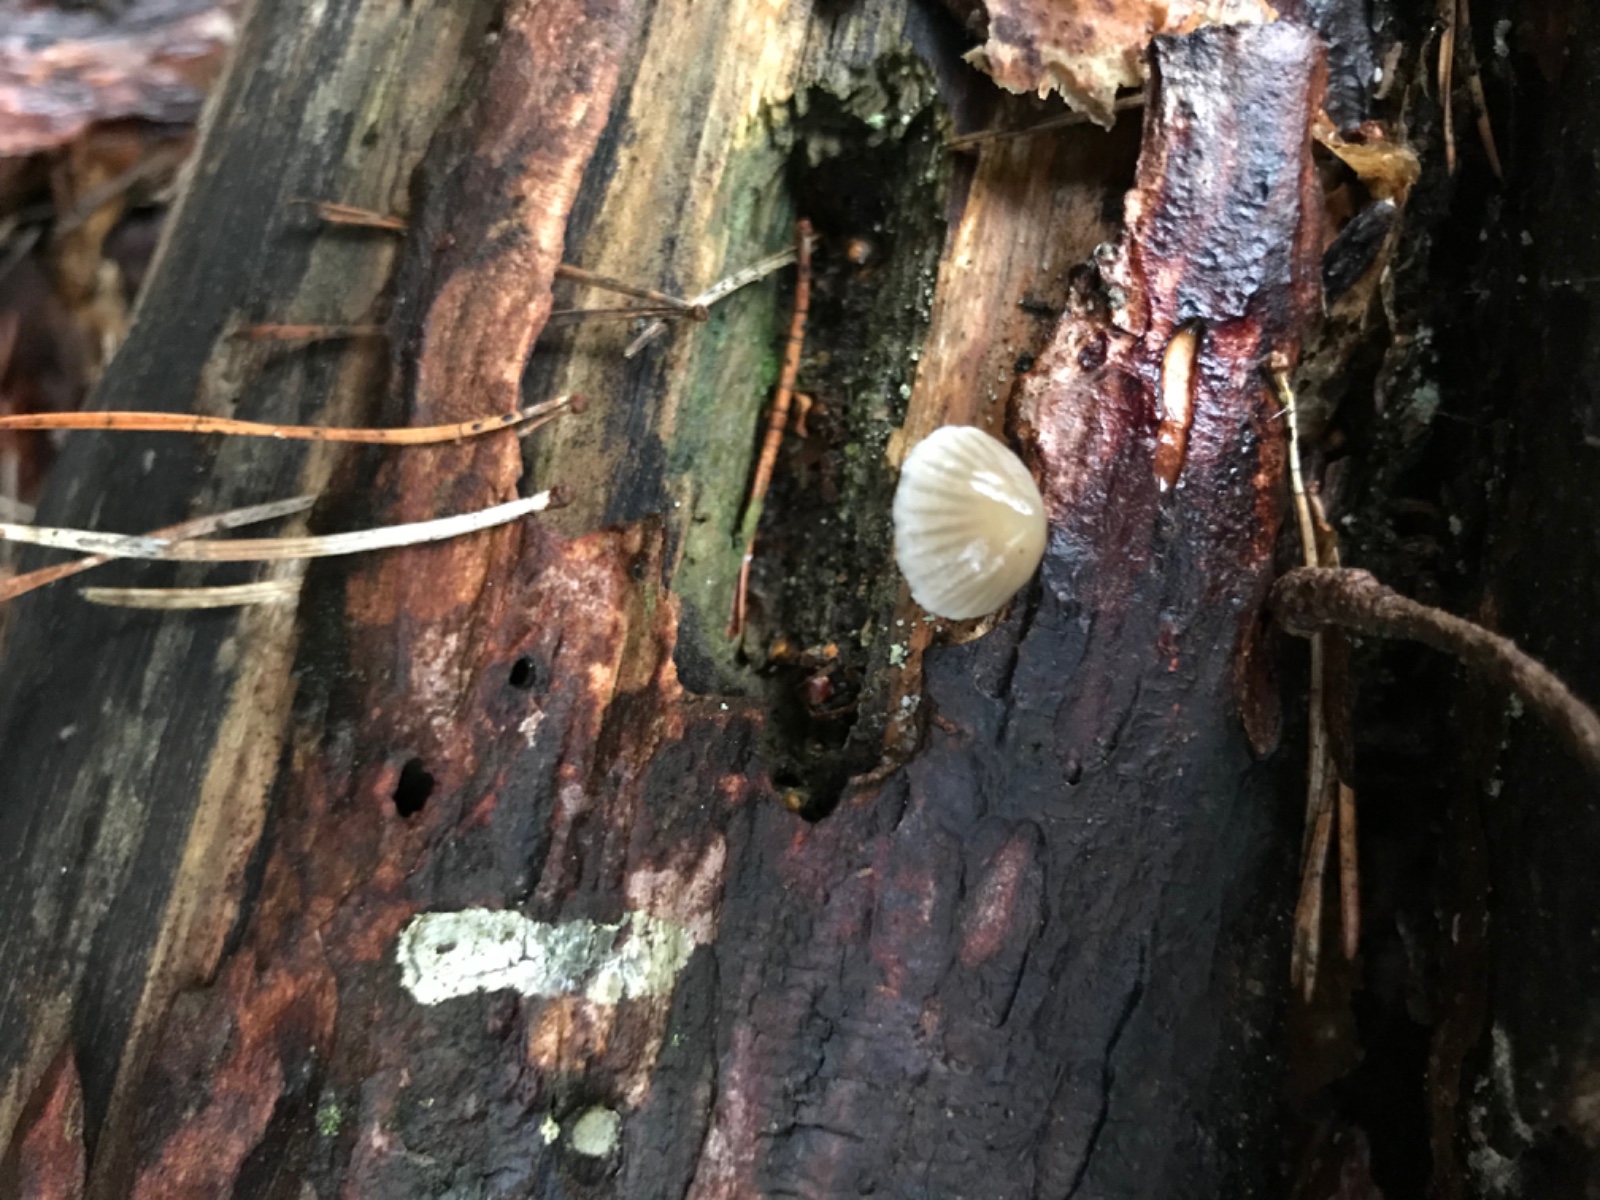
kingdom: Fungi
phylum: Basidiomycota
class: Agaricomycetes
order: Agaricales
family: Mycenaceae
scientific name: Mycenaceae
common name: huesvampfamilien
